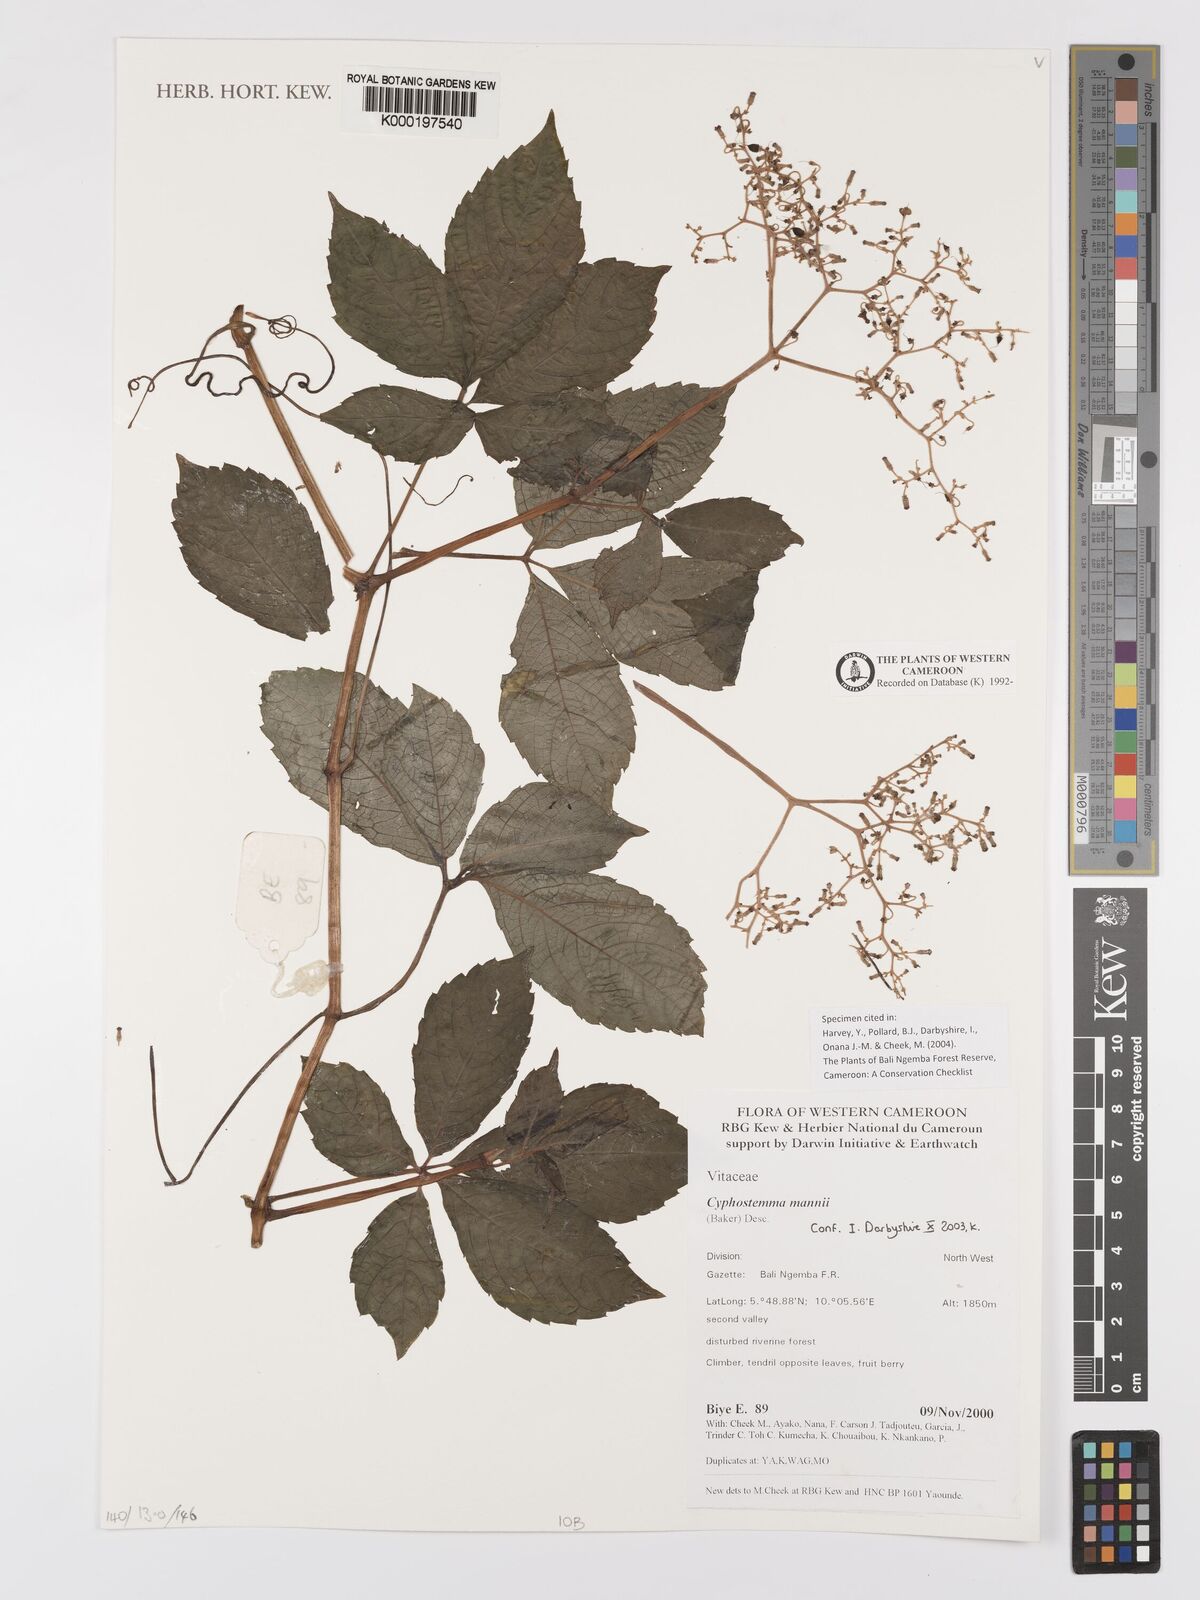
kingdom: Plantae
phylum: Tracheophyta
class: Magnoliopsida
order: Vitales
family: Vitaceae
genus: Cyphostemma
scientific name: Cyphostemma mannii
